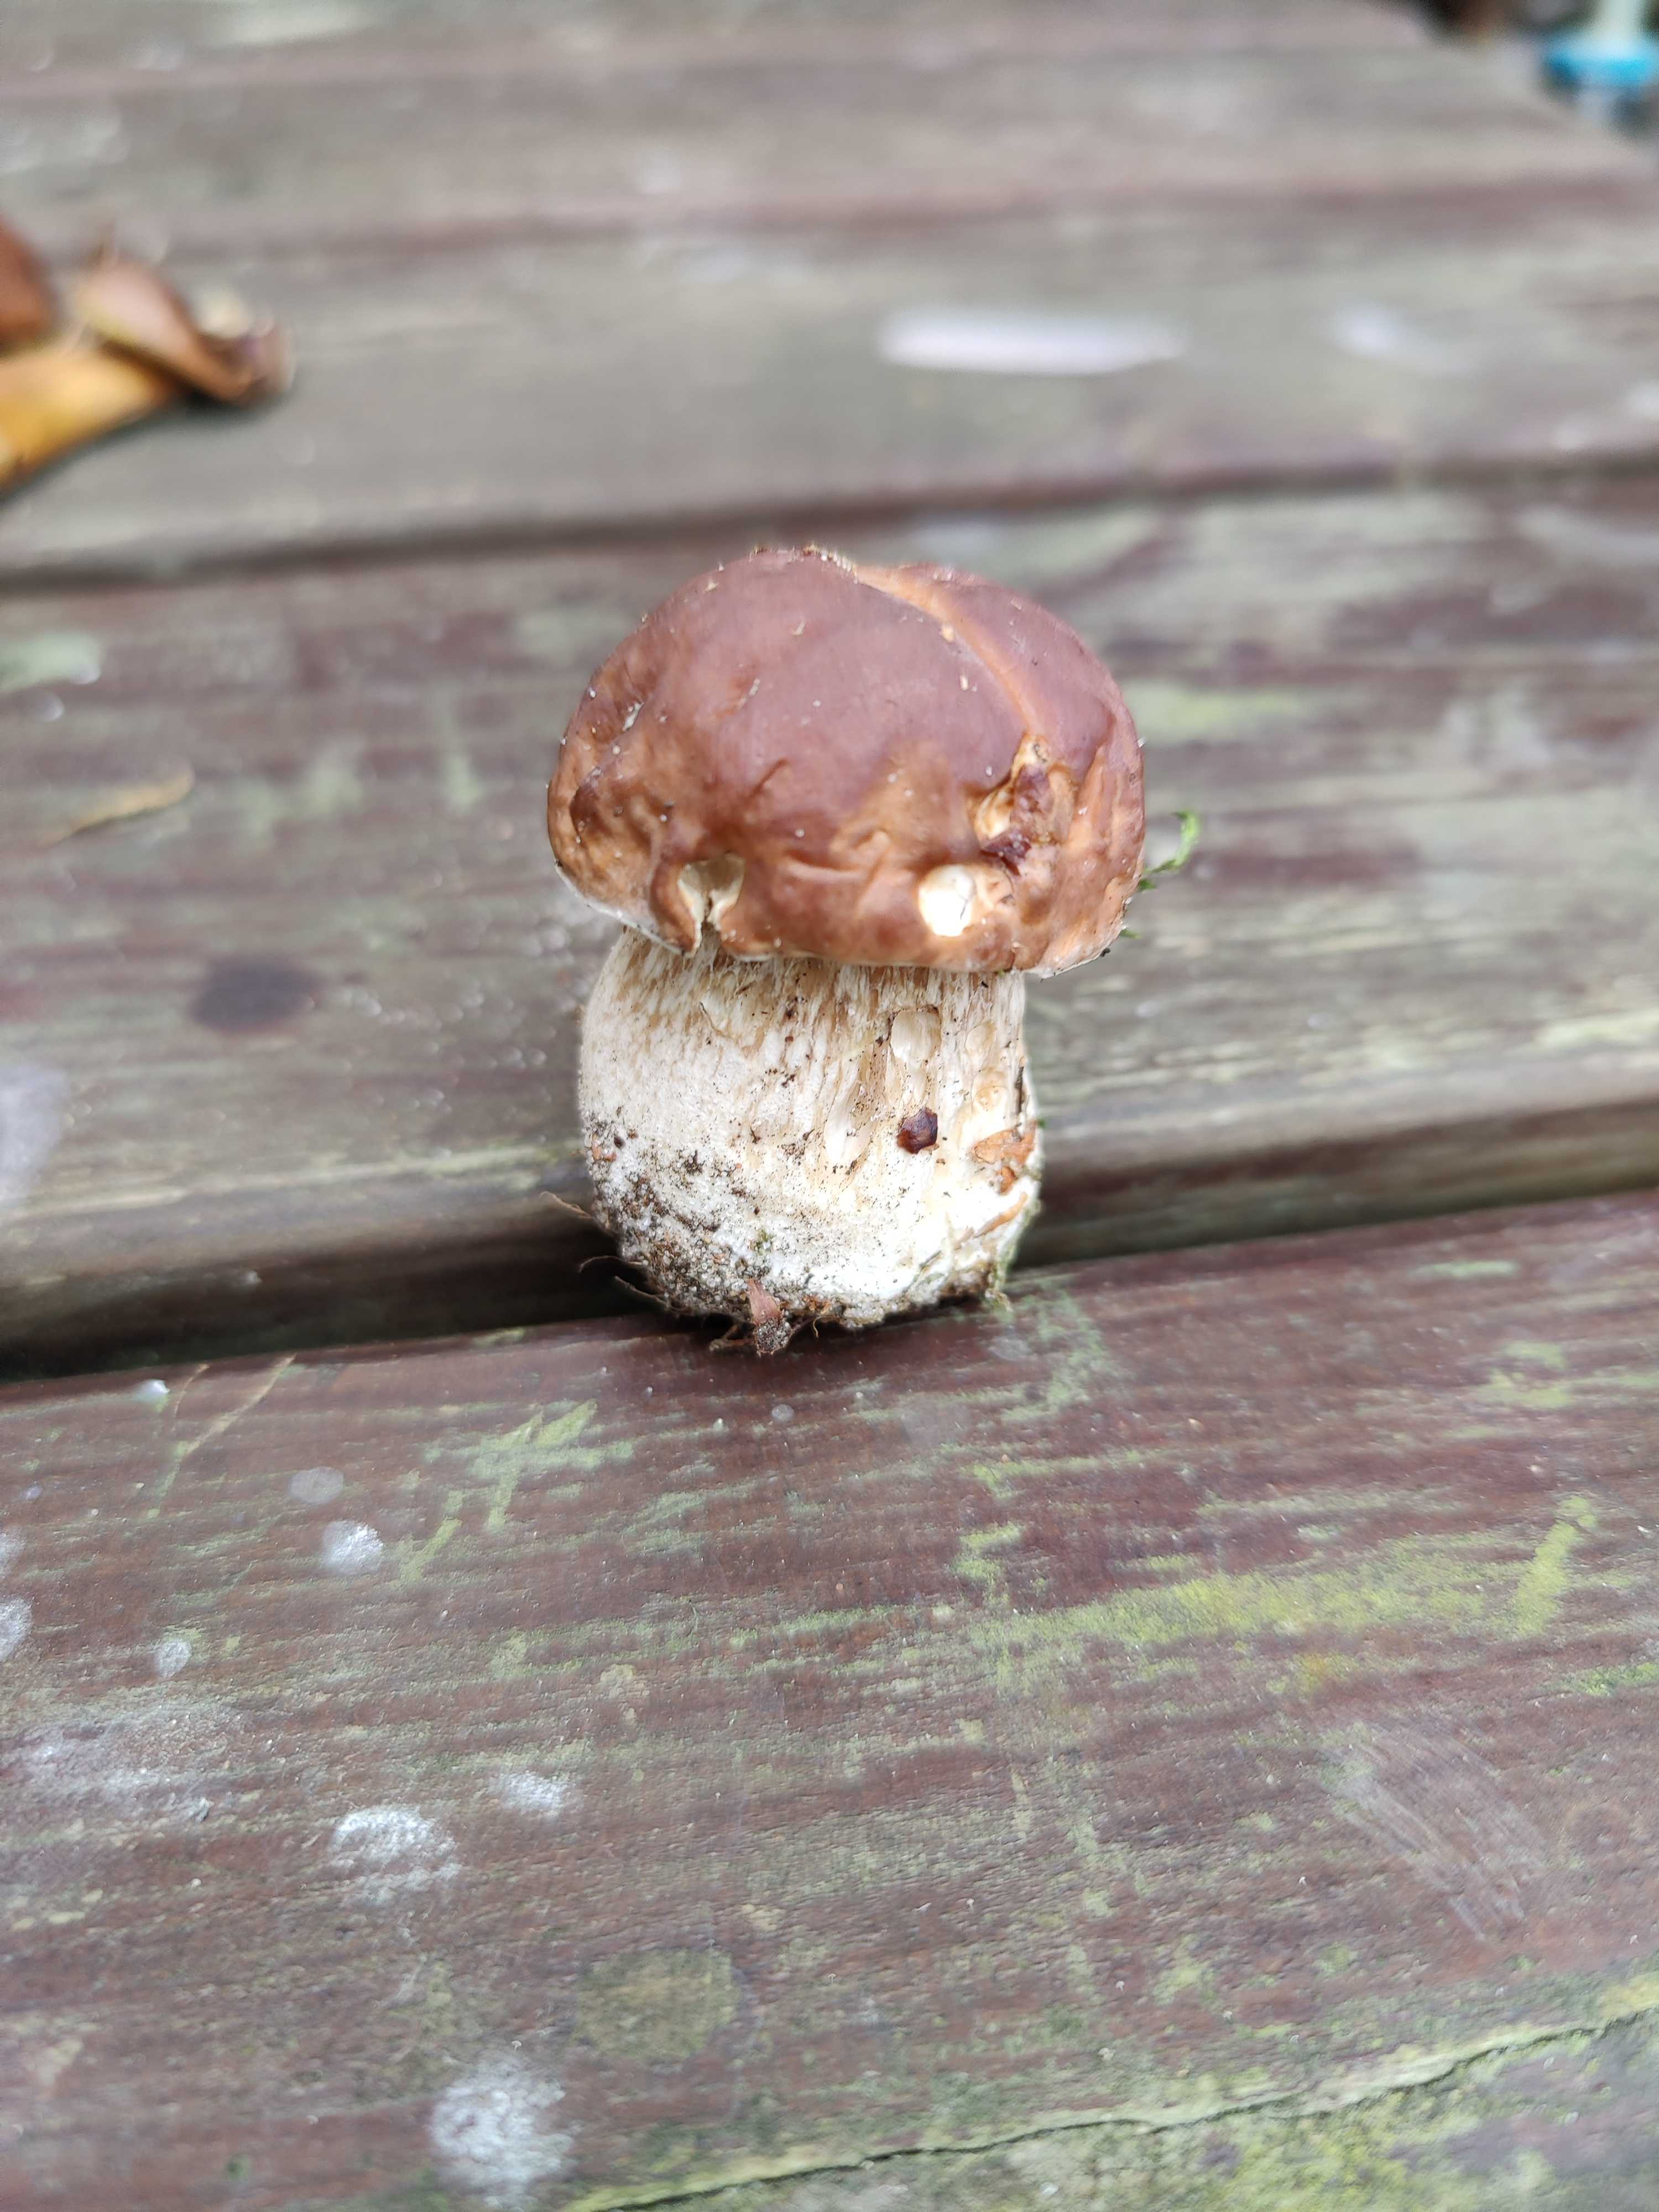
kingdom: Fungi
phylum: Basidiomycota
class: Agaricomycetes
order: Boletales
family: Boletaceae
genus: Boletus
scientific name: Boletus edulis
